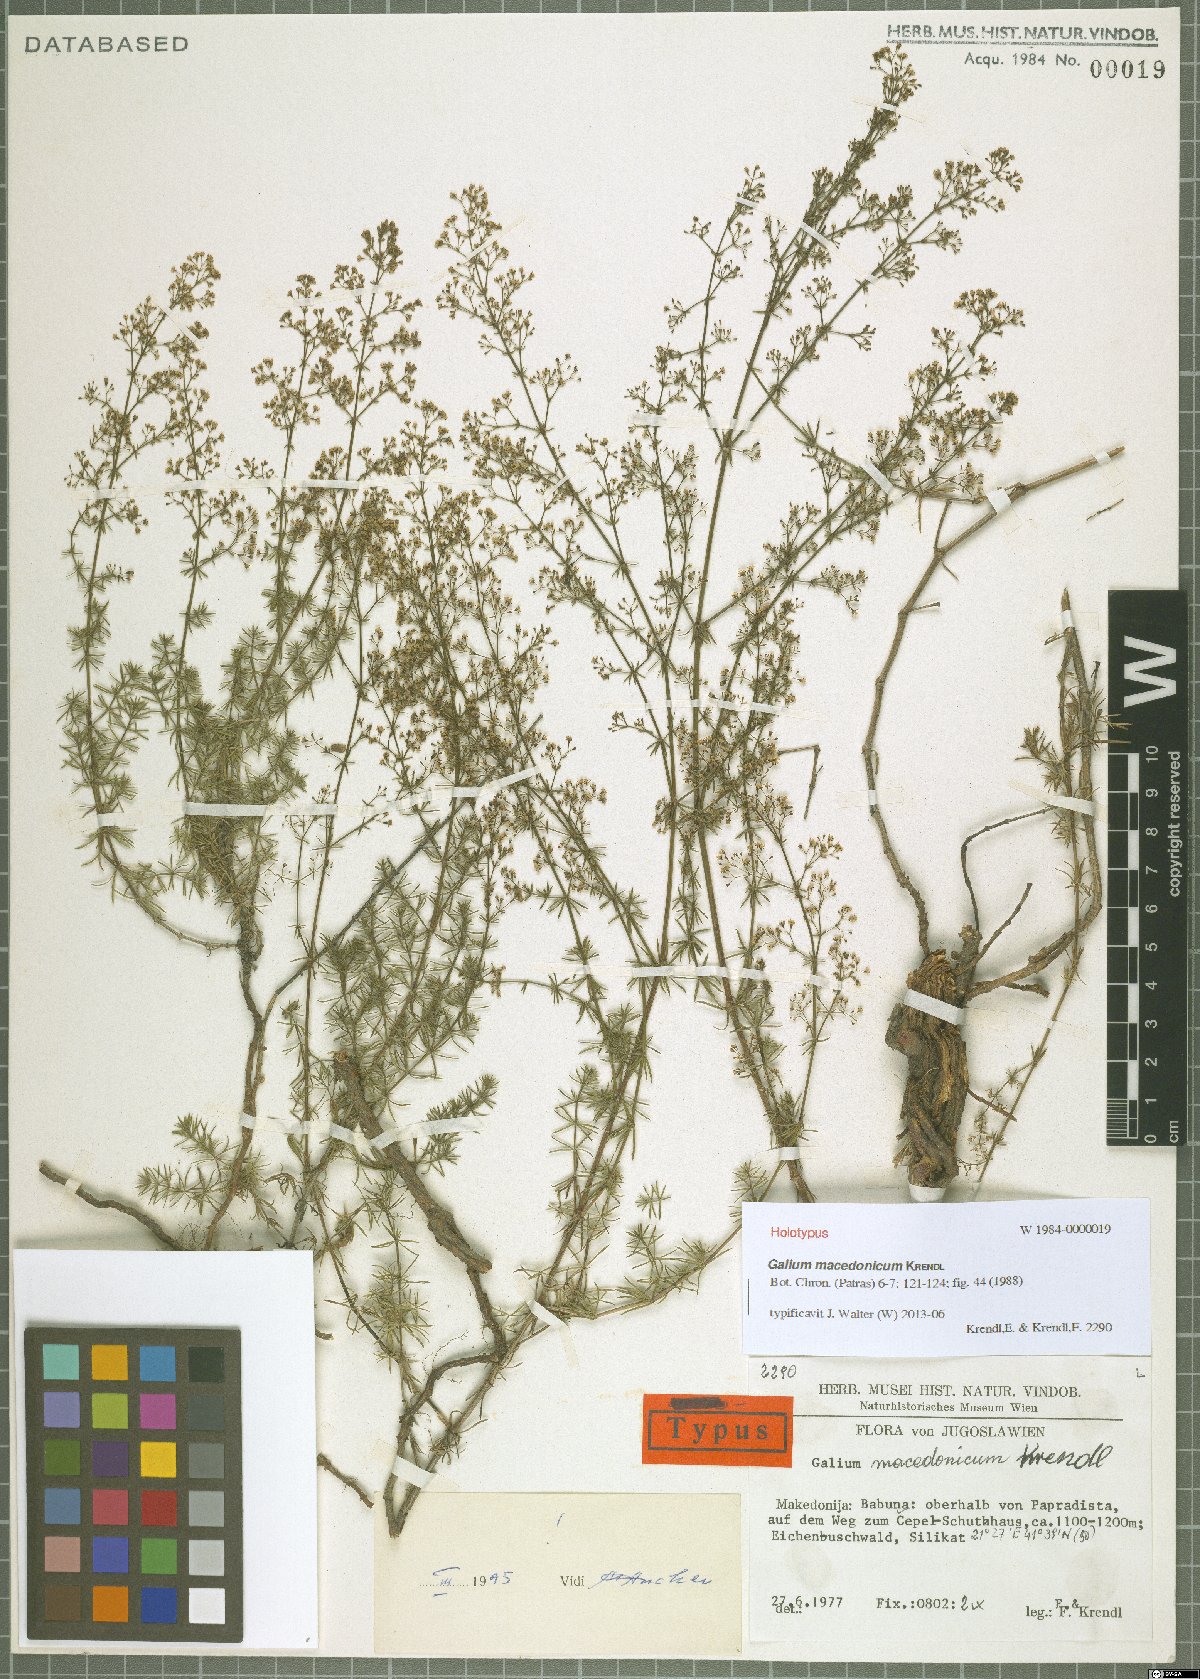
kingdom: Plantae
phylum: Tracheophyta
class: Magnoliopsida
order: Gentianales
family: Rubiaceae
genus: Galium
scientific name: Galium macedonicum
